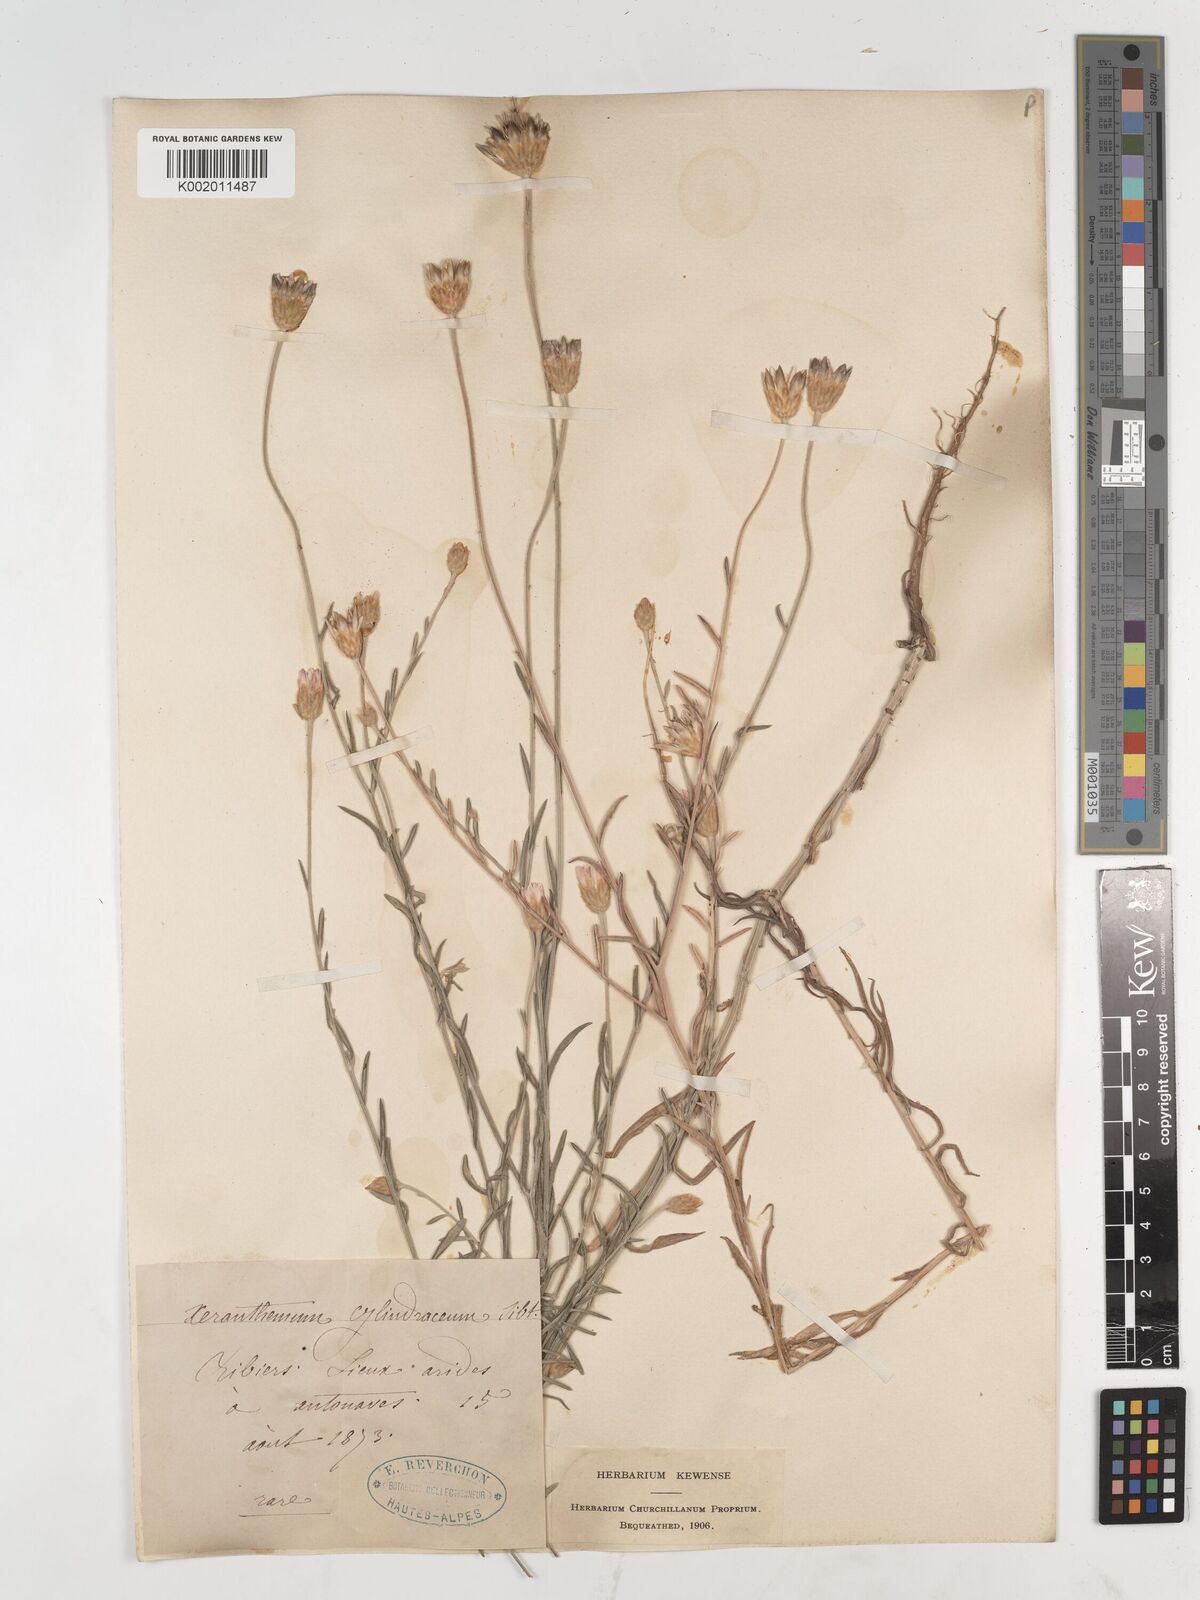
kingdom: Plantae
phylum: Tracheophyta
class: Magnoliopsida
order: Asterales
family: Asteraceae
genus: Xeranthemum
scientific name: Xeranthemum cylindraceum
